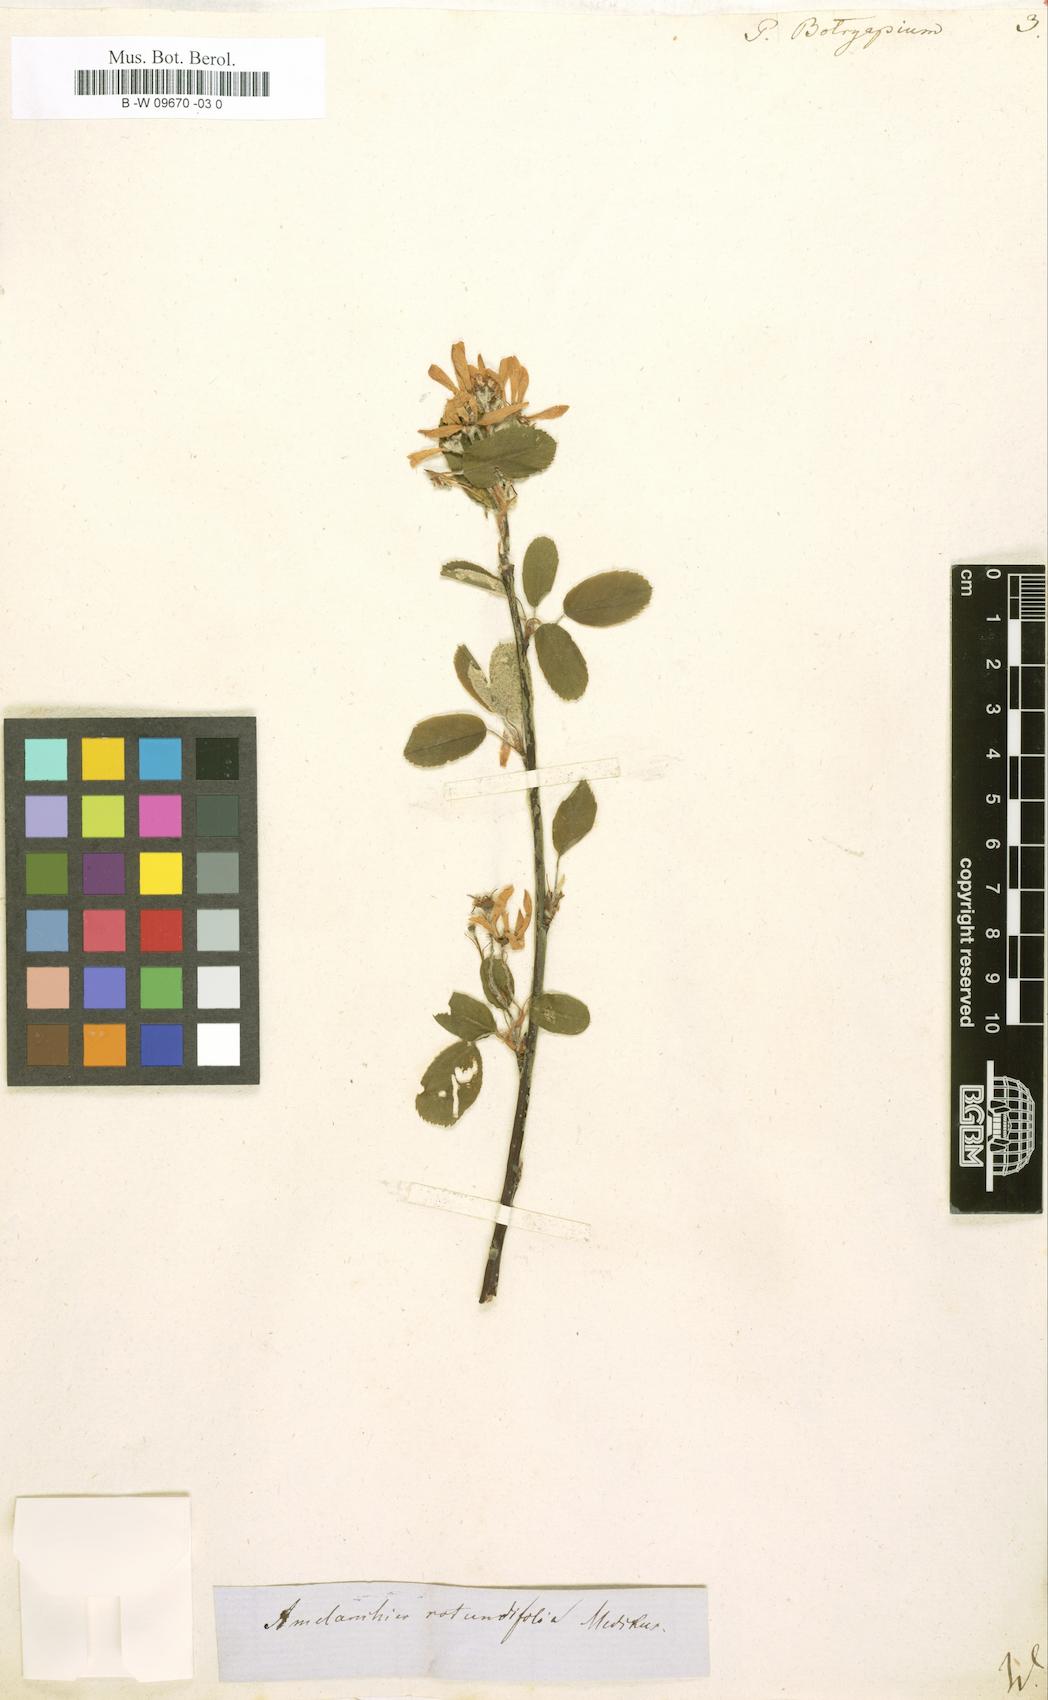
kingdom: Plantae
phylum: Tracheophyta
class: Magnoliopsida
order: Rosales
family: Rosaceae
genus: Amelanchier
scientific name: Amelanchier
